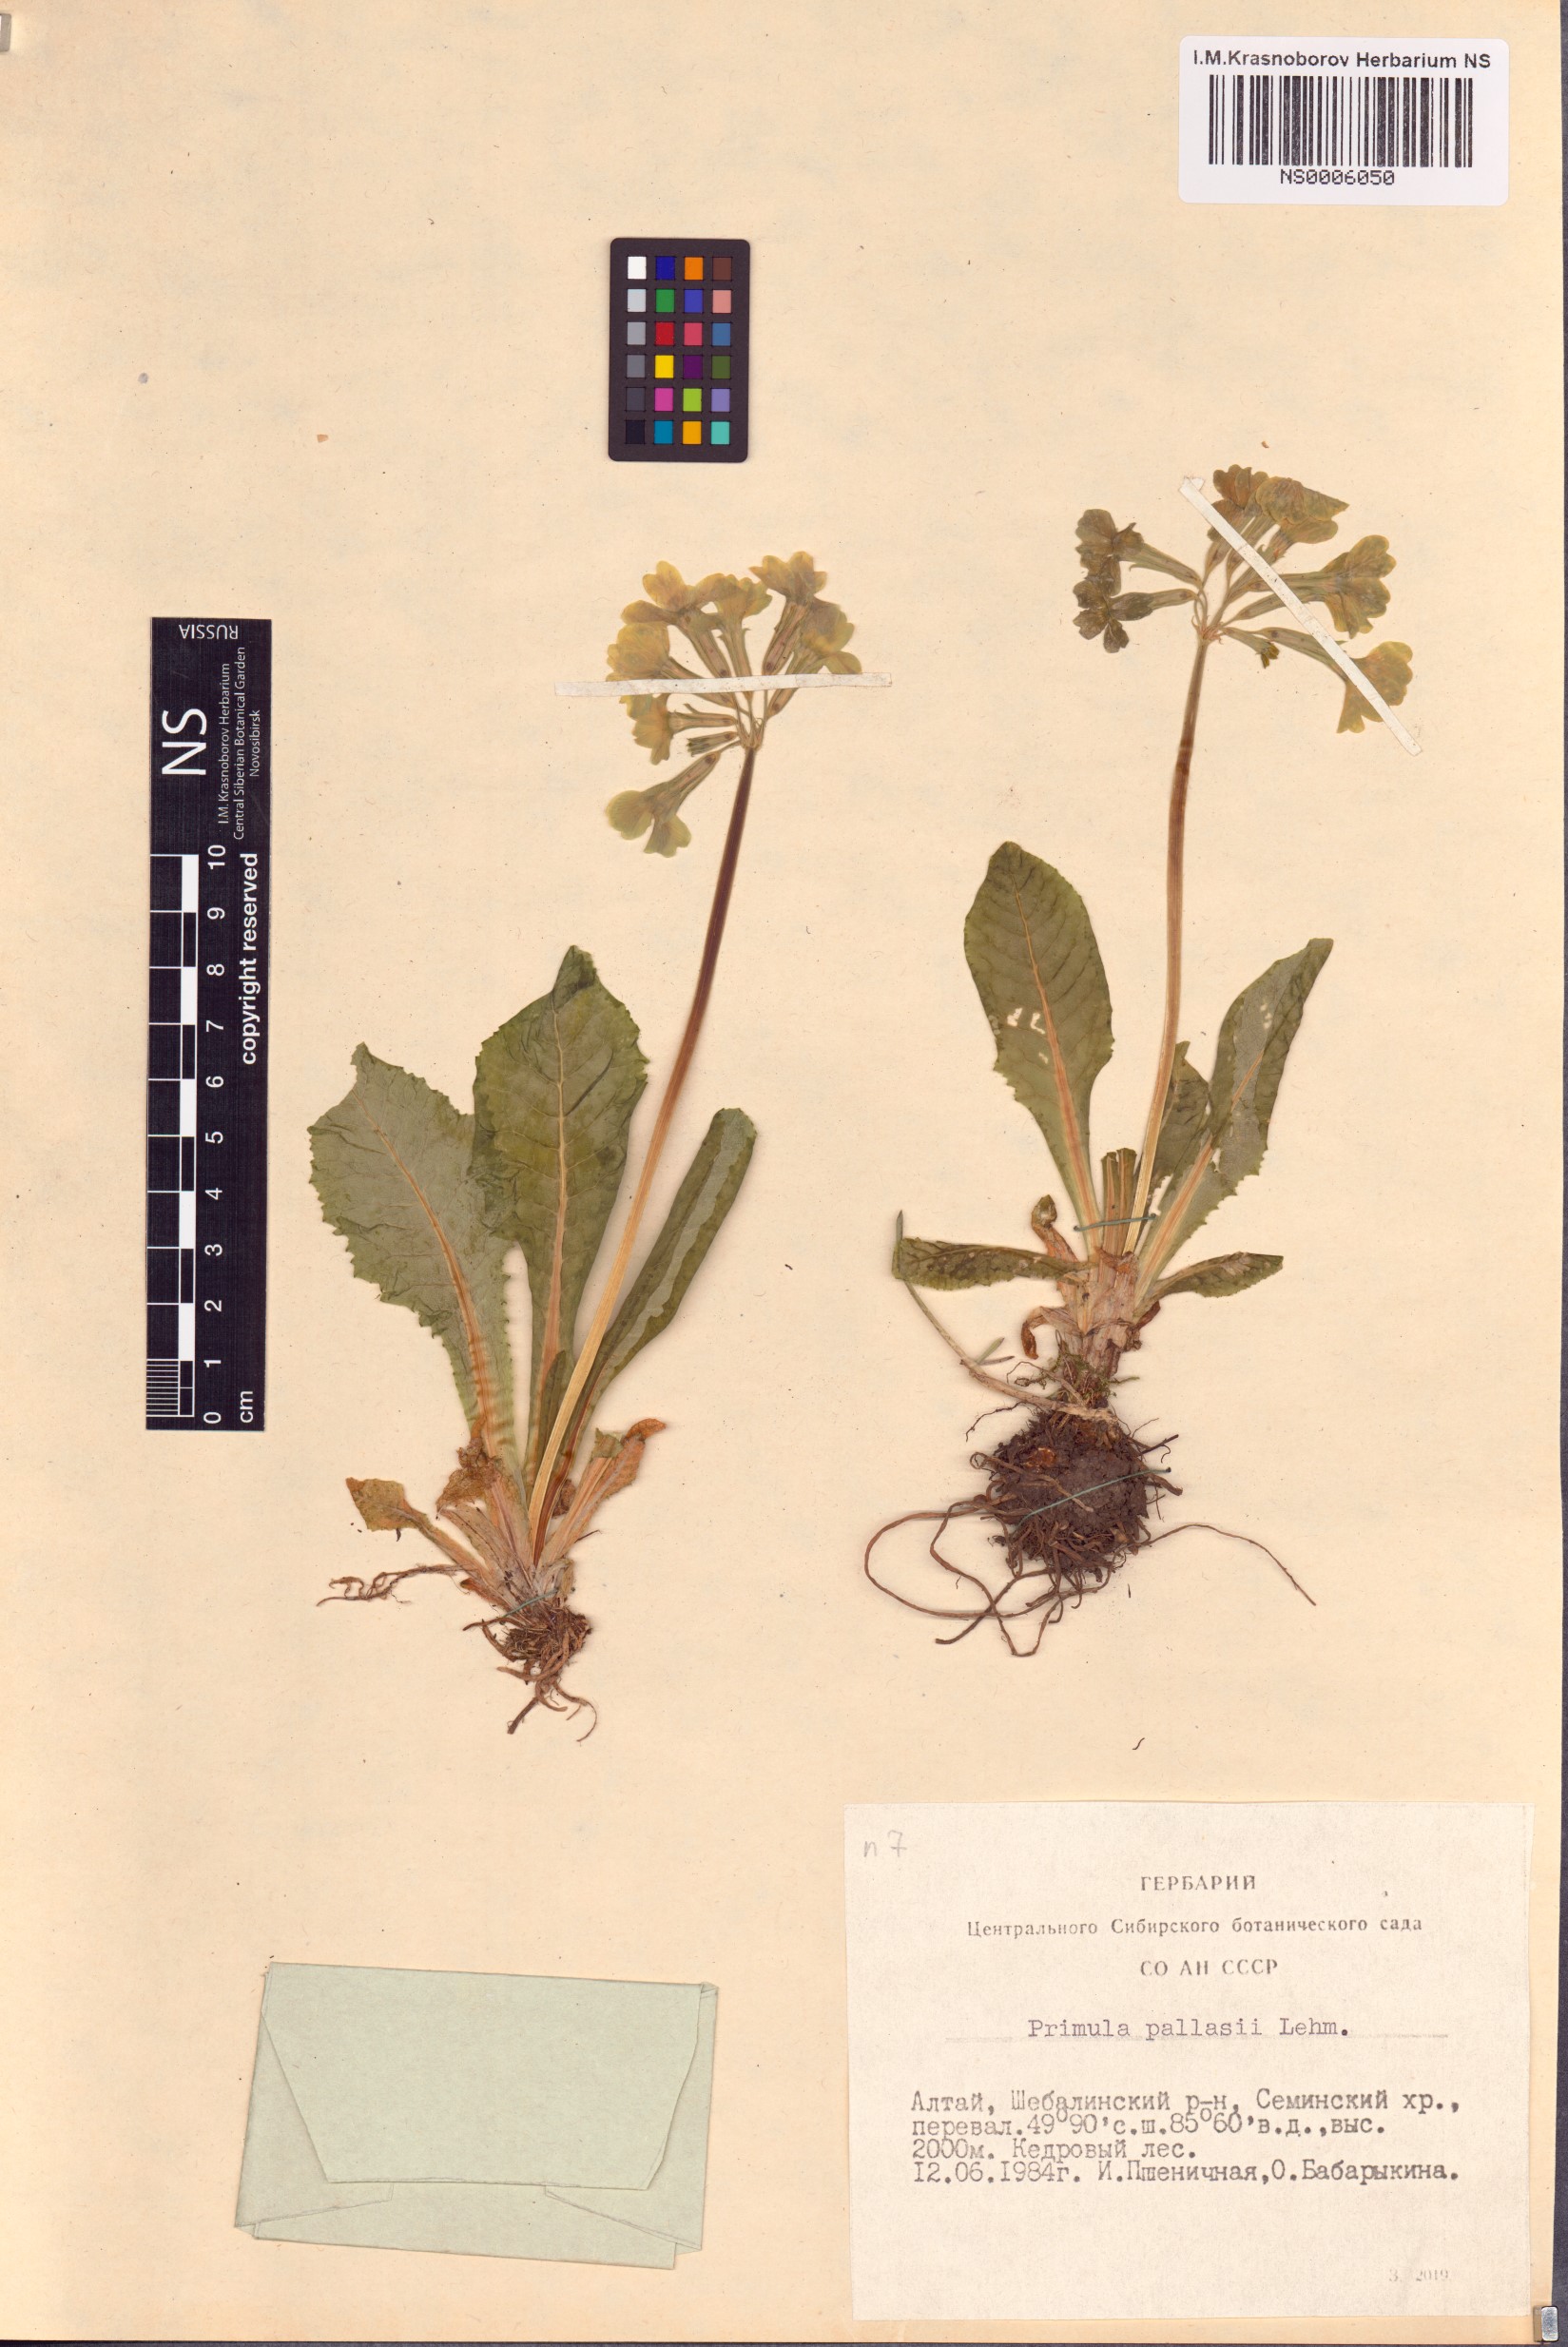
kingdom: Plantae
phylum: Tracheophyta
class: Magnoliopsida
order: Ericales
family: Primulaceae
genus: Primula
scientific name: Primula elatior
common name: Oxlip
